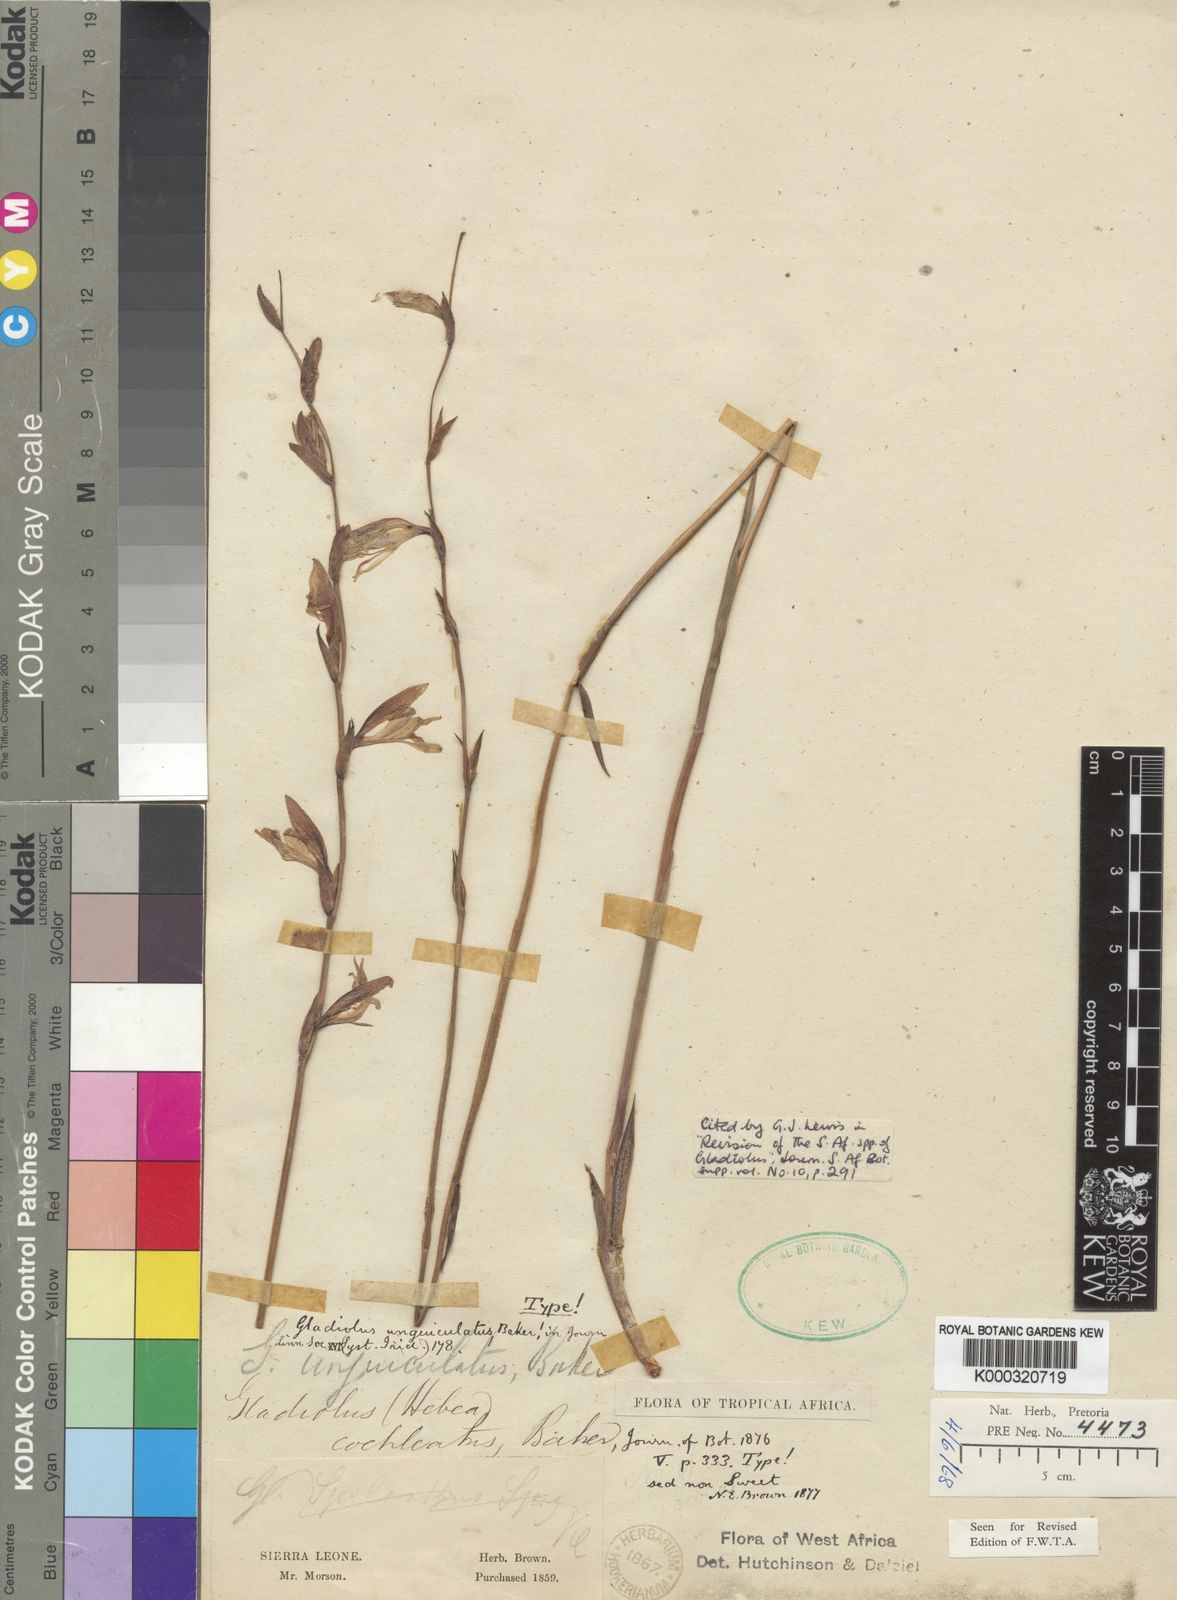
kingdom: Plantae
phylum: Tracheophyta
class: Liliopsida
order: Asparagales
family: Iridaceae
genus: Gladiolus
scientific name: Gladiolus unguiculatus
